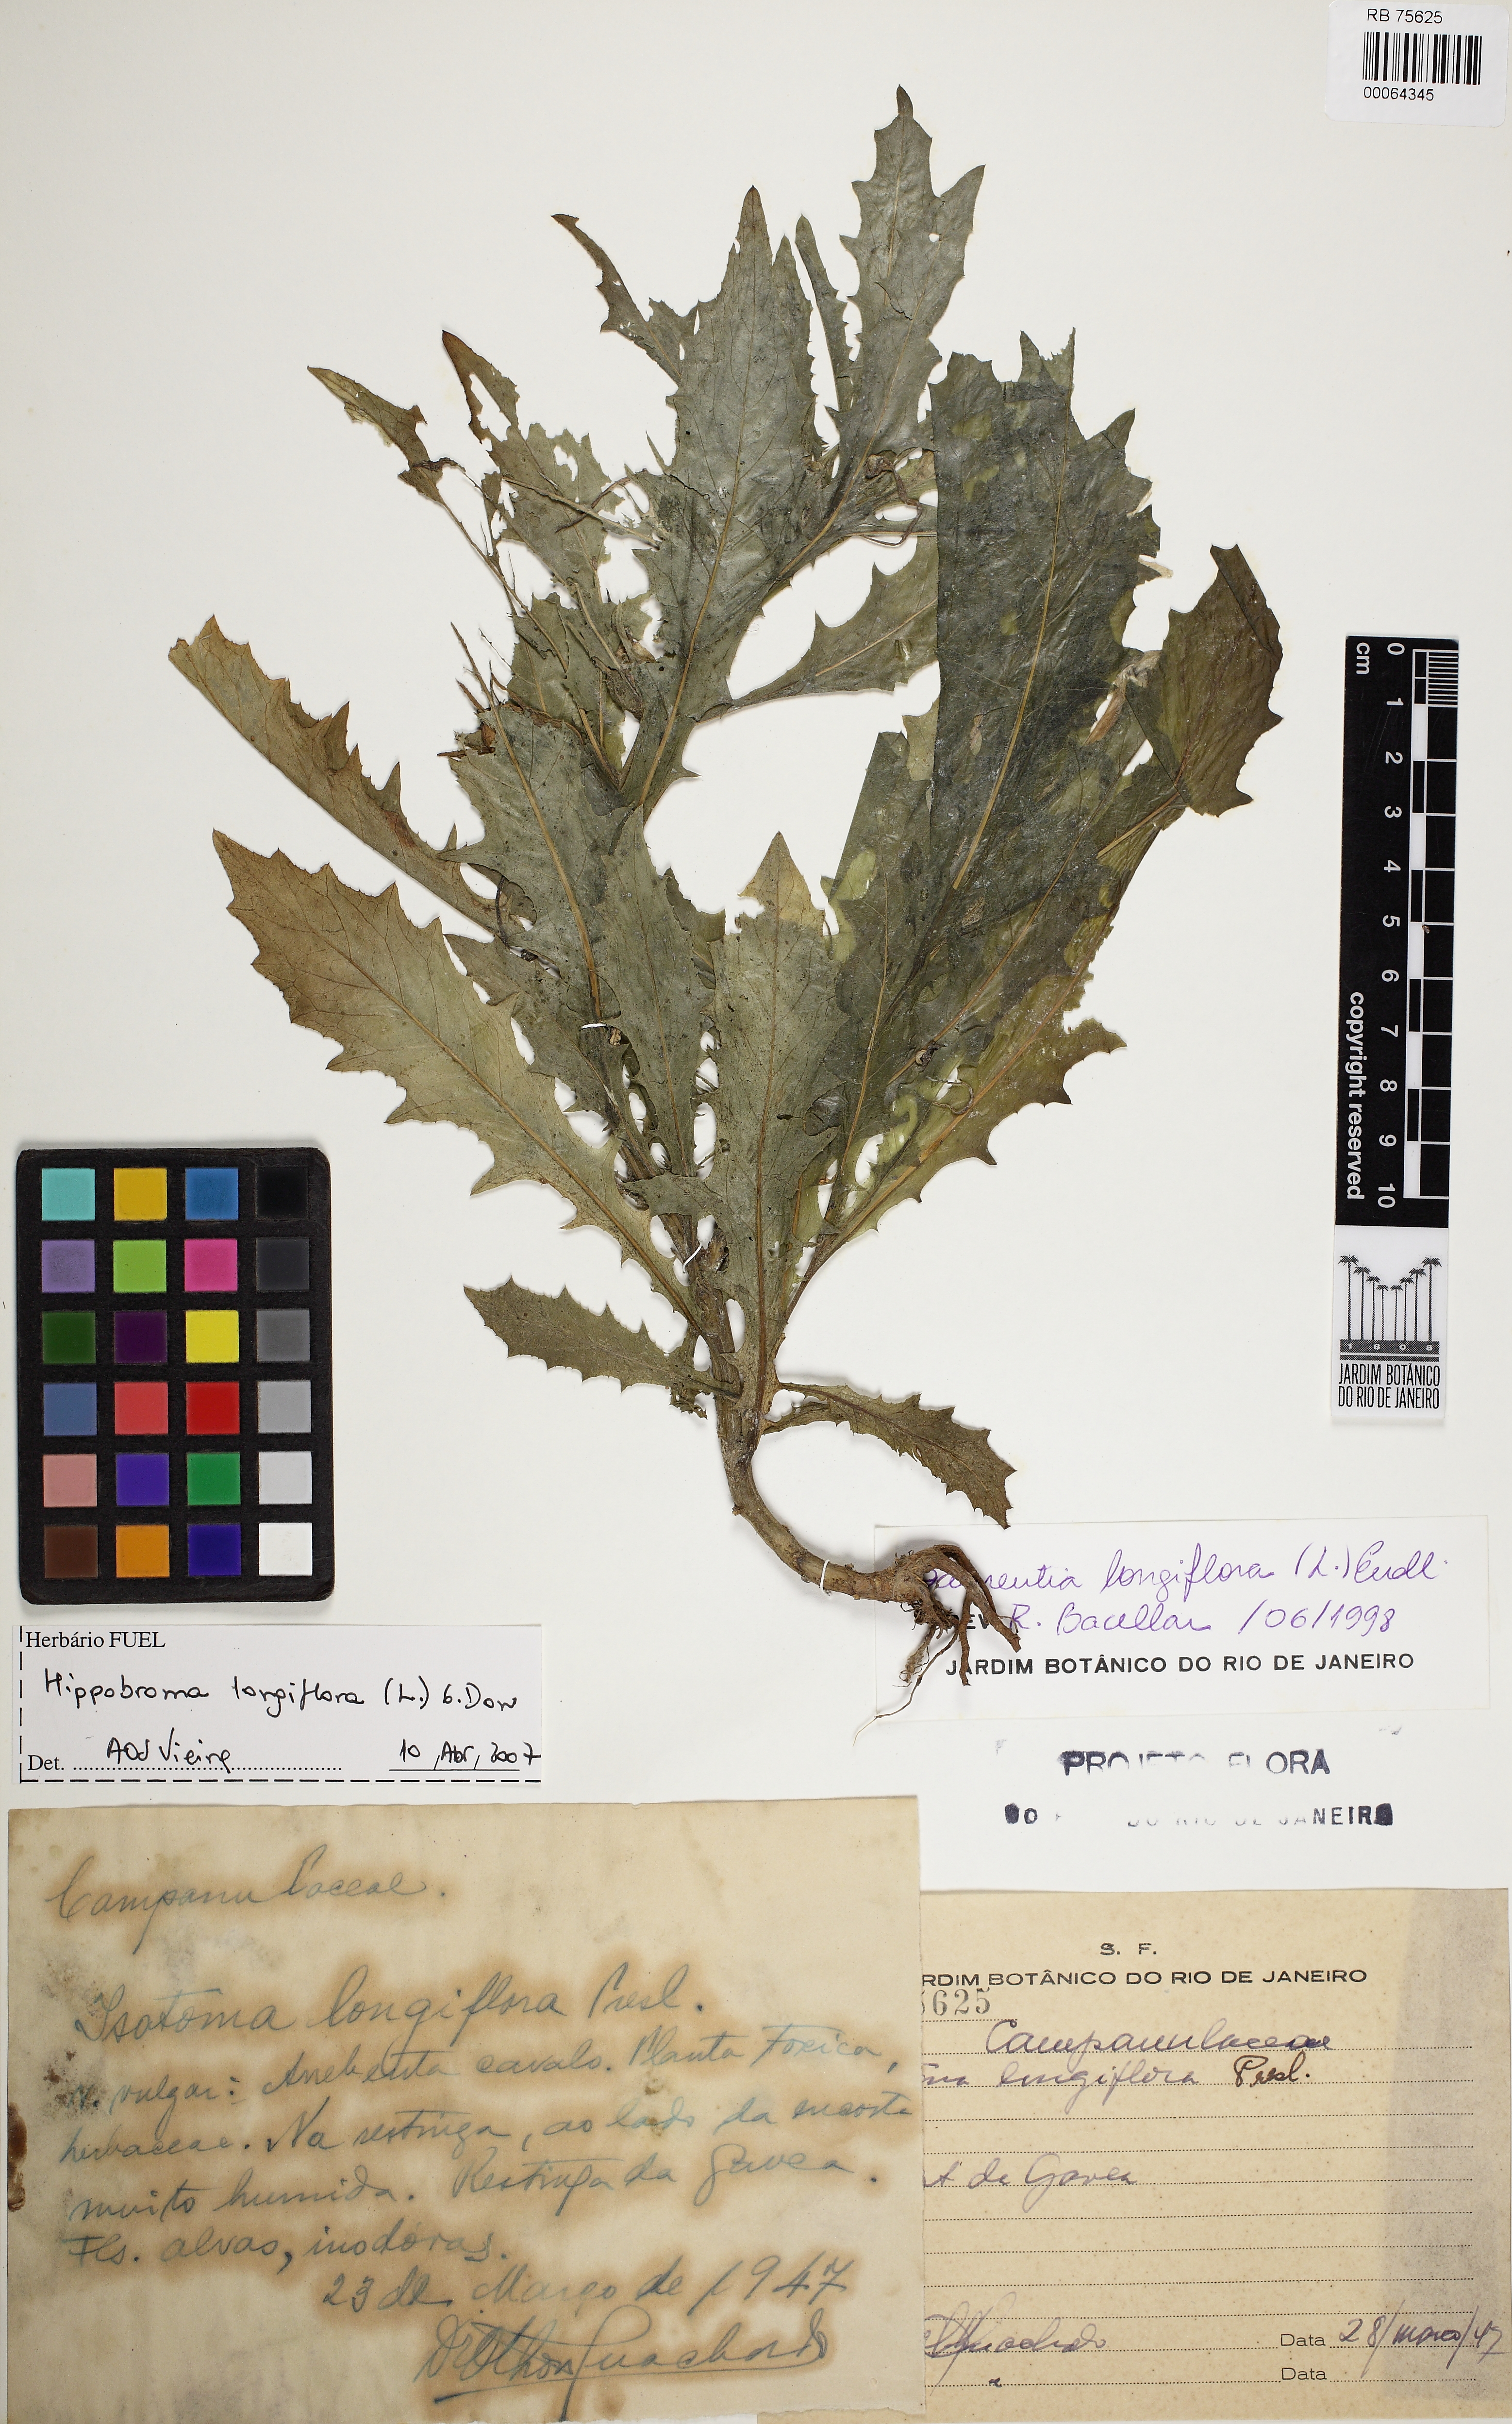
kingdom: Plantae
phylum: Tracheophyta
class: Magnoliopsida
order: Asterales
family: Campanulaceae
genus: Hippobroma
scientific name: Hippobroma longiflora
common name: Madamfate
